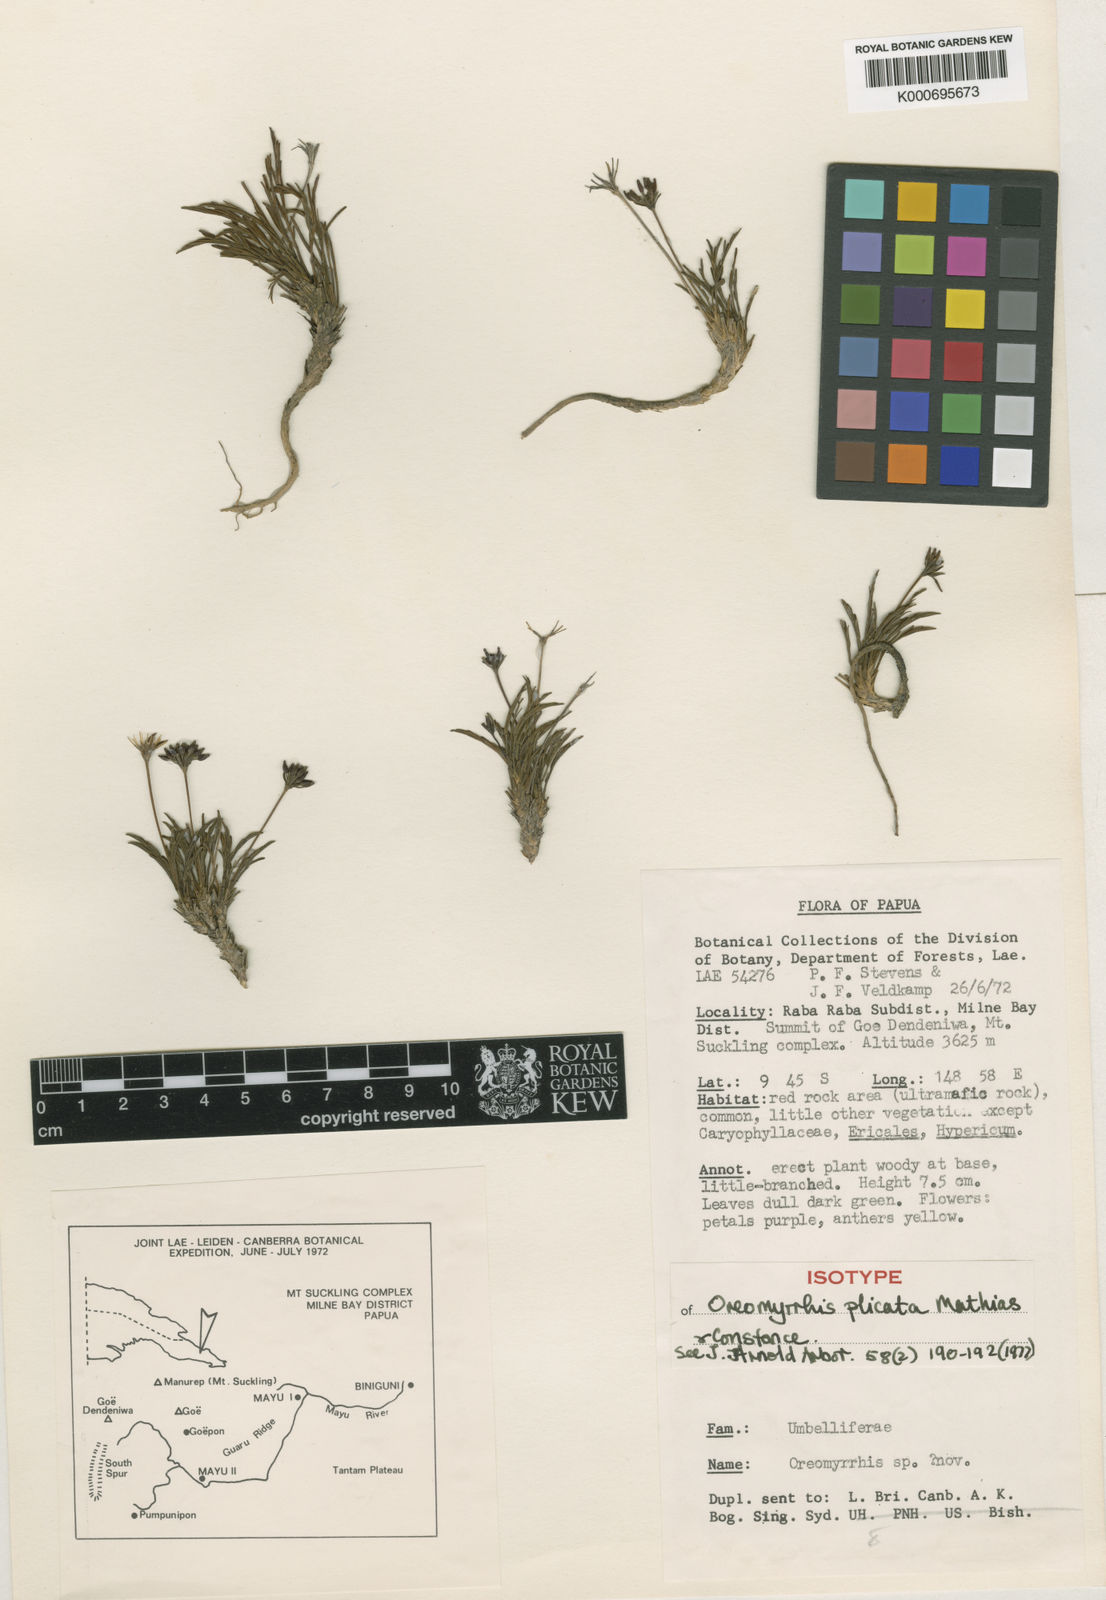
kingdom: Plantae
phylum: Tracheophyta
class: Magnoliopsida
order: Apiales
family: Apiaceae
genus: Chaerophyllum
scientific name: Chaerophyllum plicatum
